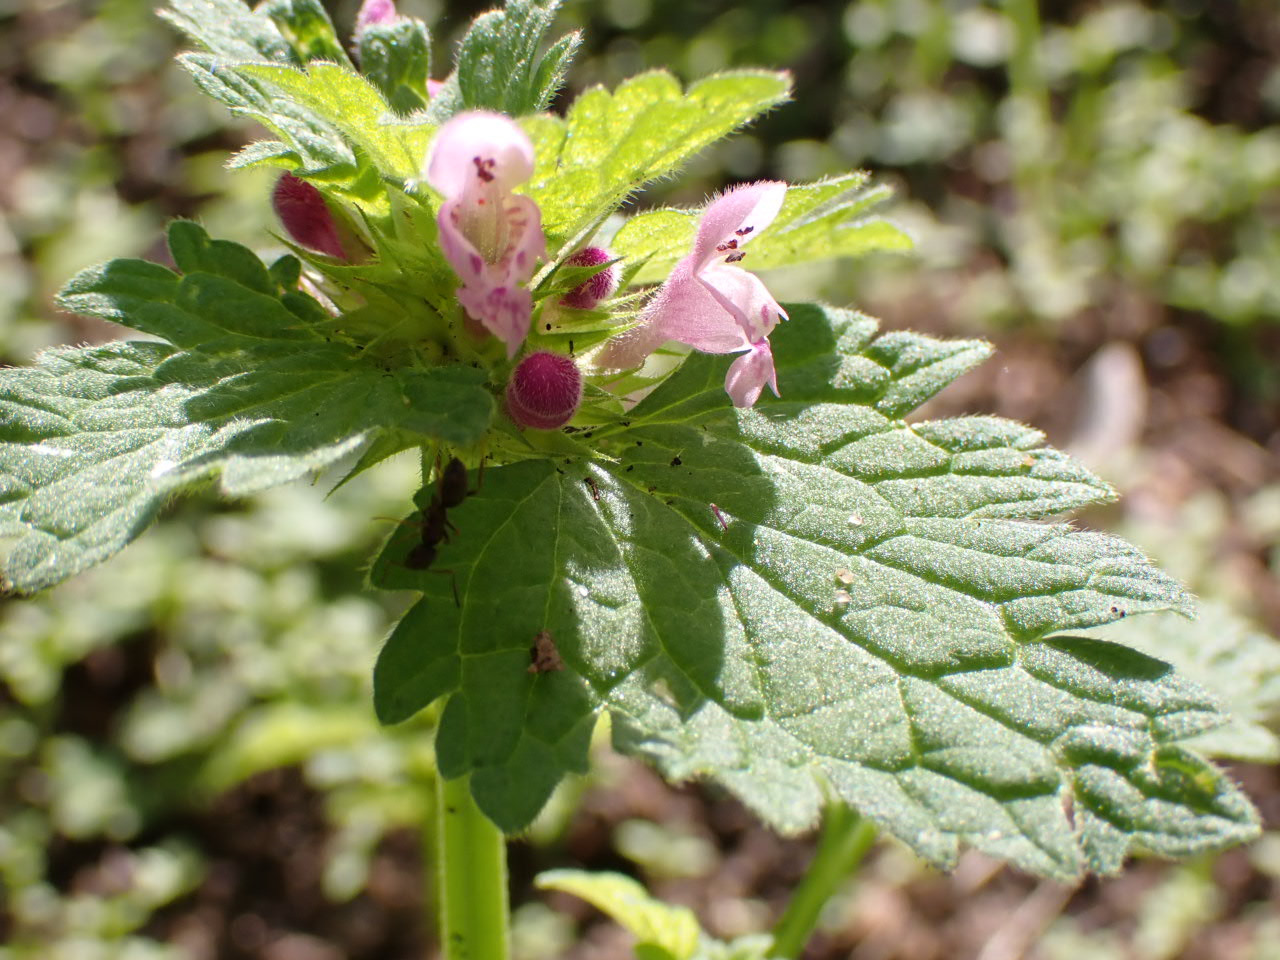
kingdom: Plantae
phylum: Tracheophyta
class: Magnoliopsida
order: Lamiales
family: Lamiaceae
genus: Lamium
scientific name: Lamium hybridum
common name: Fliget tvetand
